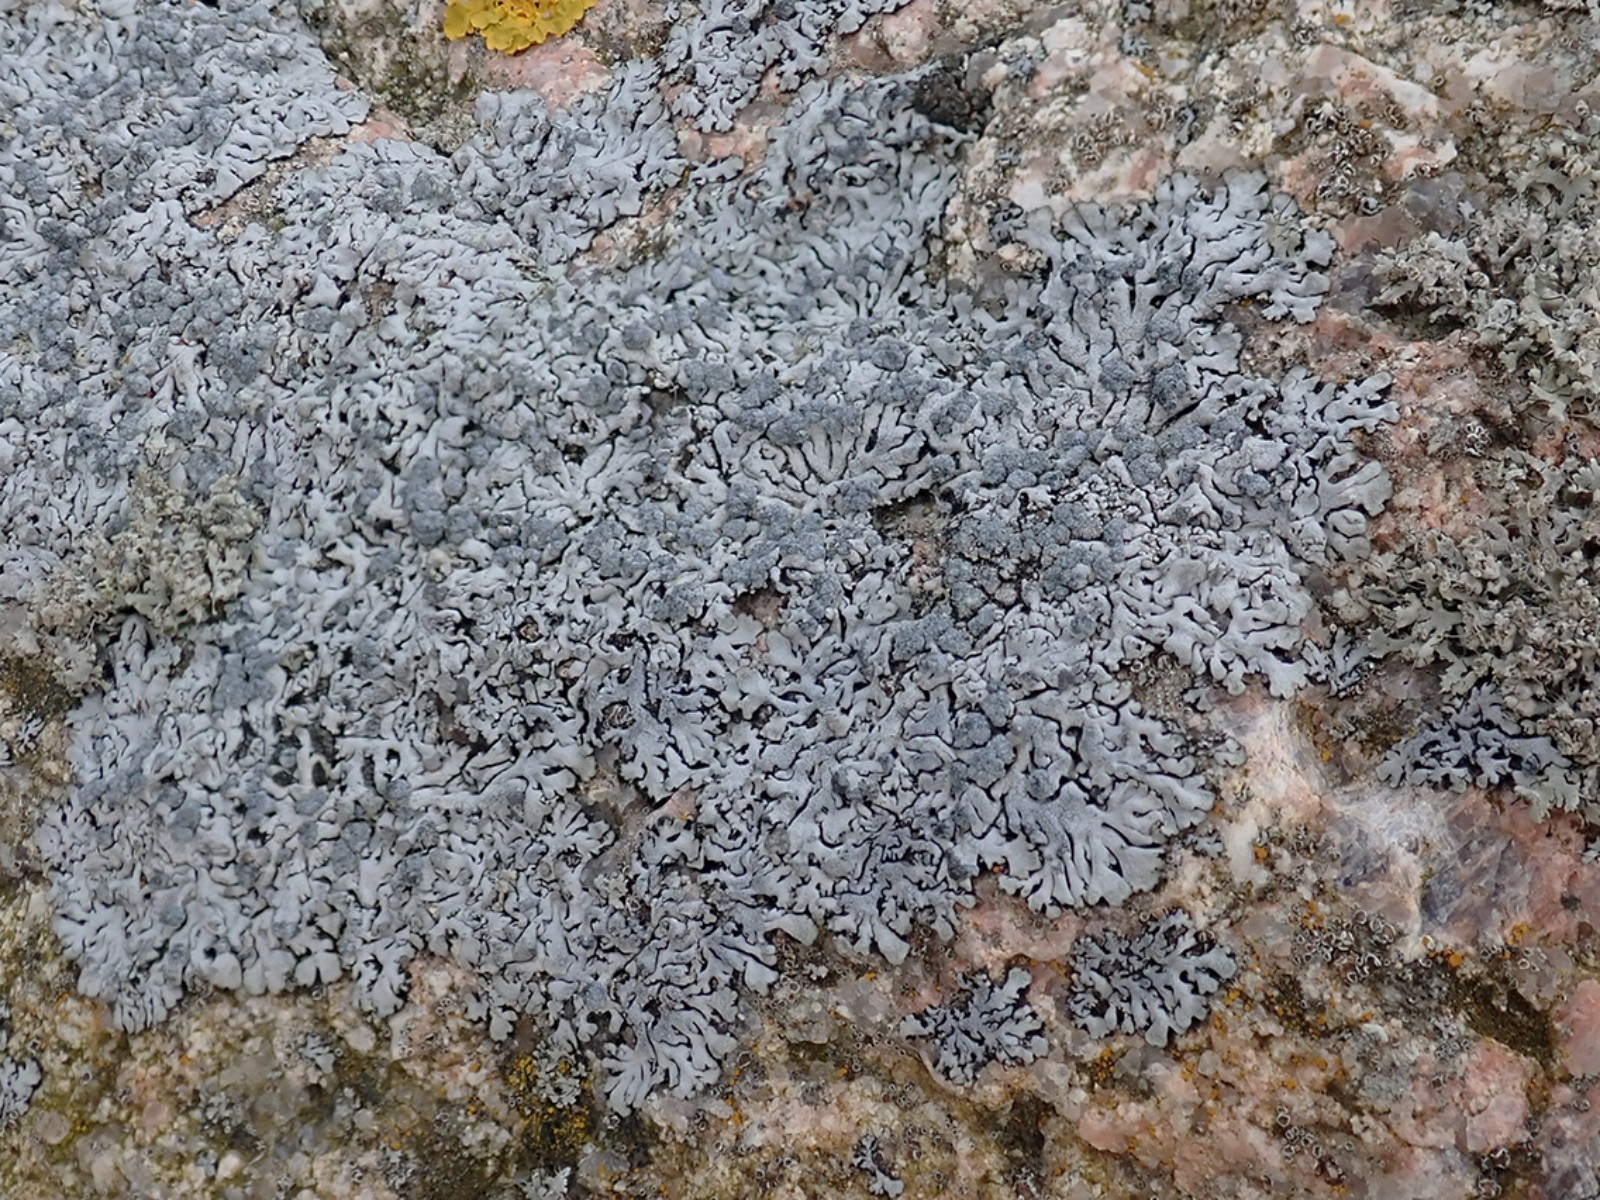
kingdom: Fungi
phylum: Ascomycota
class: Lecanoromycetes
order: Caliciales
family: Physciaceae
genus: Physcia
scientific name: Physcia caesia
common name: blågrå rosetlav
